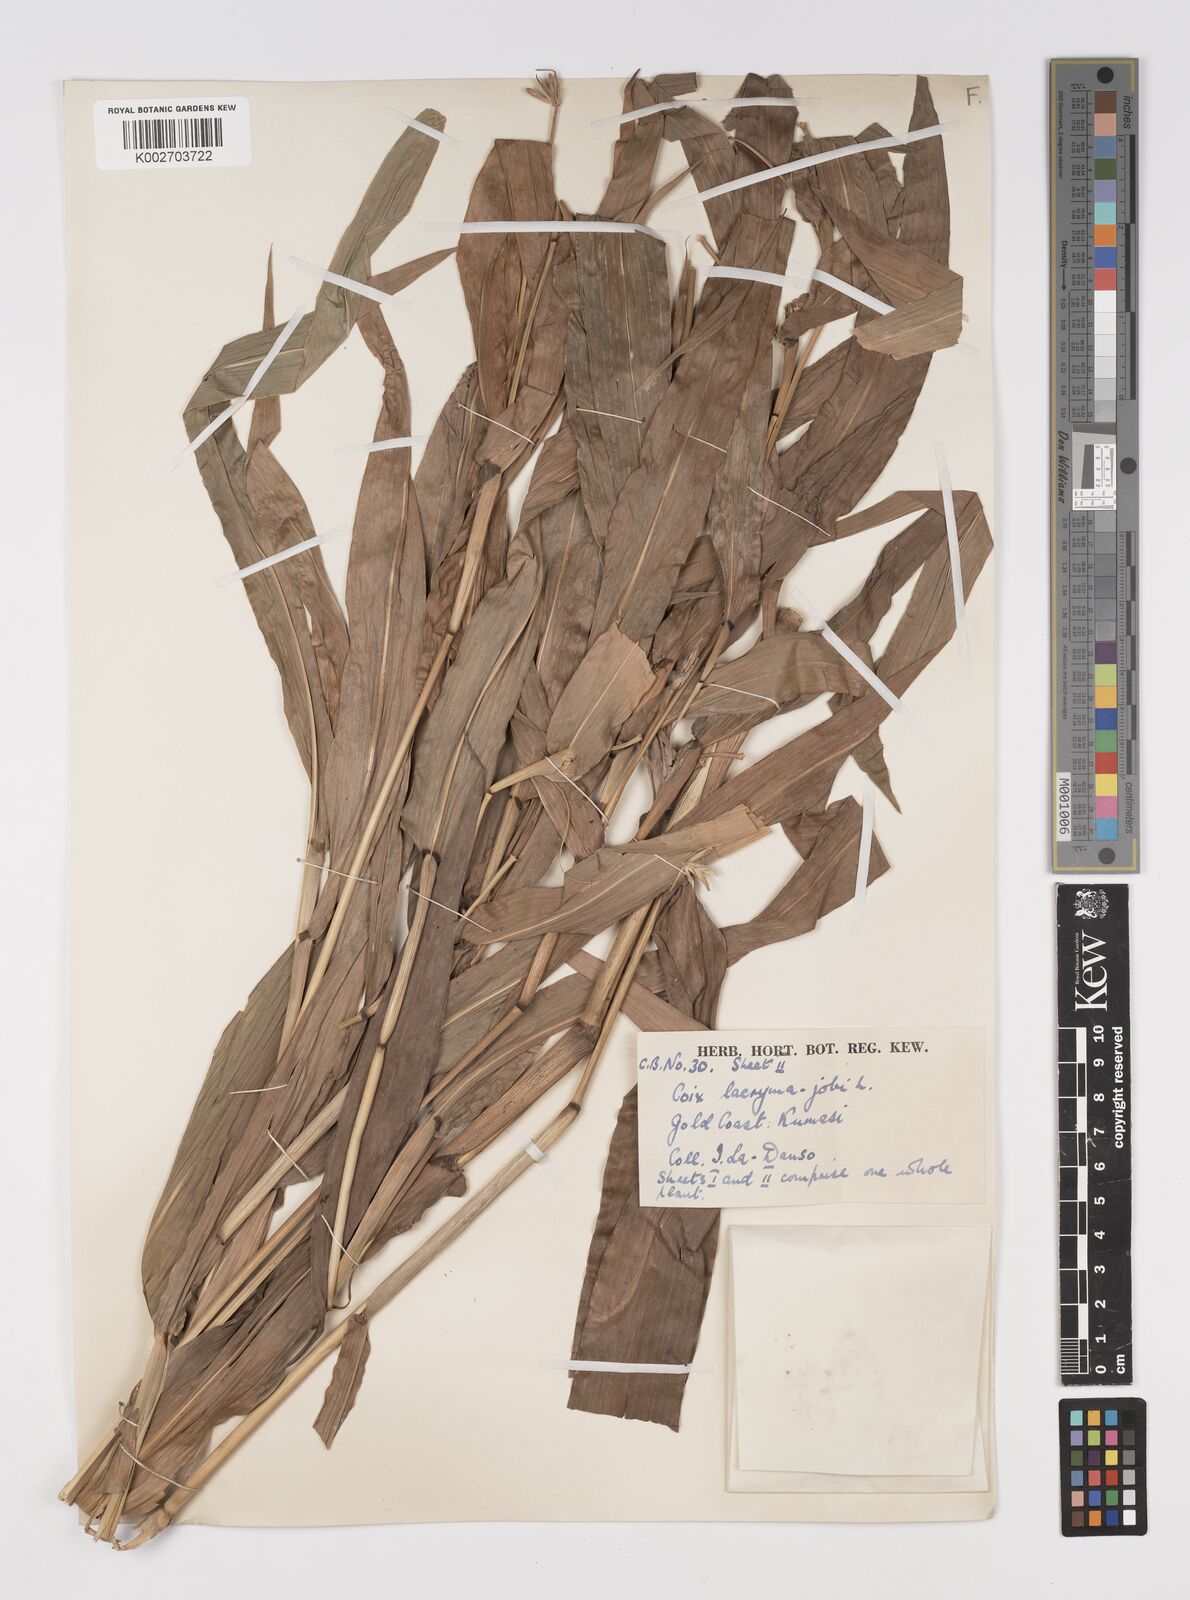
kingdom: Plantae
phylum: Tracheophyta
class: Liliopsida
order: Poales
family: Poaceae
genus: Coix
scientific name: Coix lacryma-jobi
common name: Job's tears
